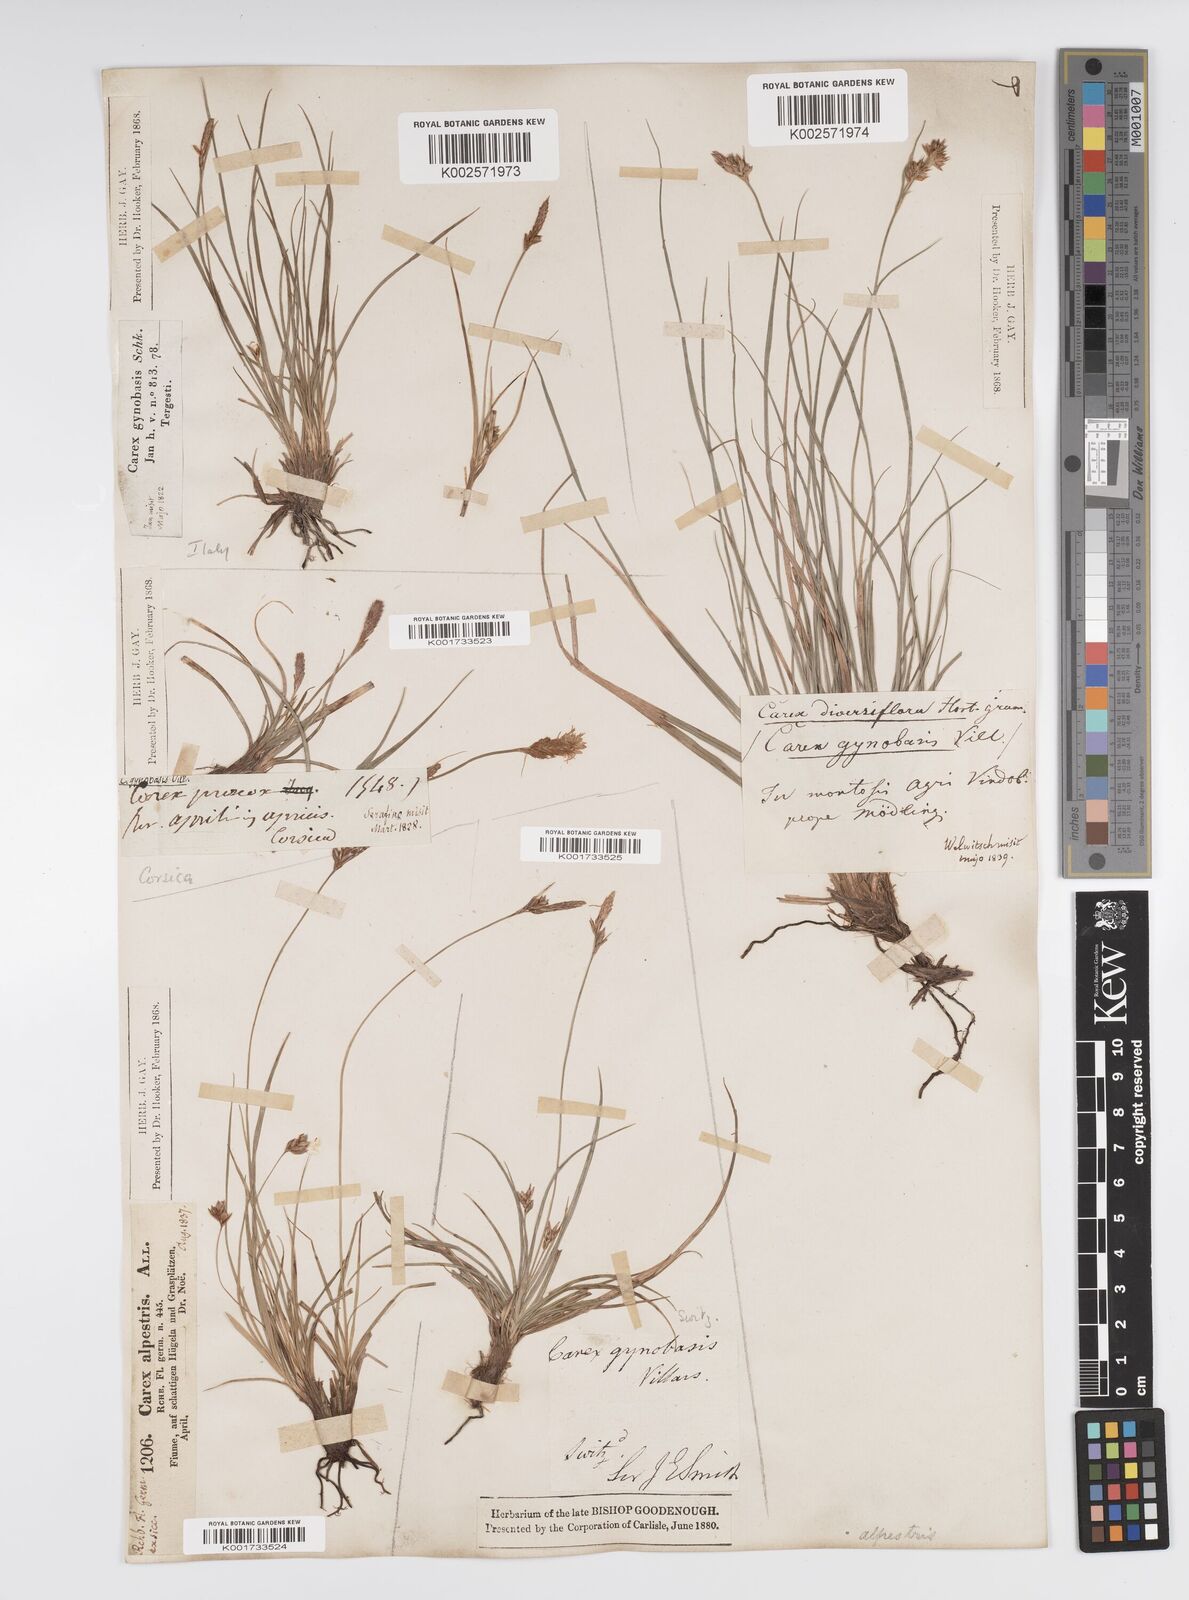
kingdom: Plantae
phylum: Tracheophyta
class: Liliopsida
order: Poales
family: Cyperaceae
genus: Carex
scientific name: Carex halleriana
